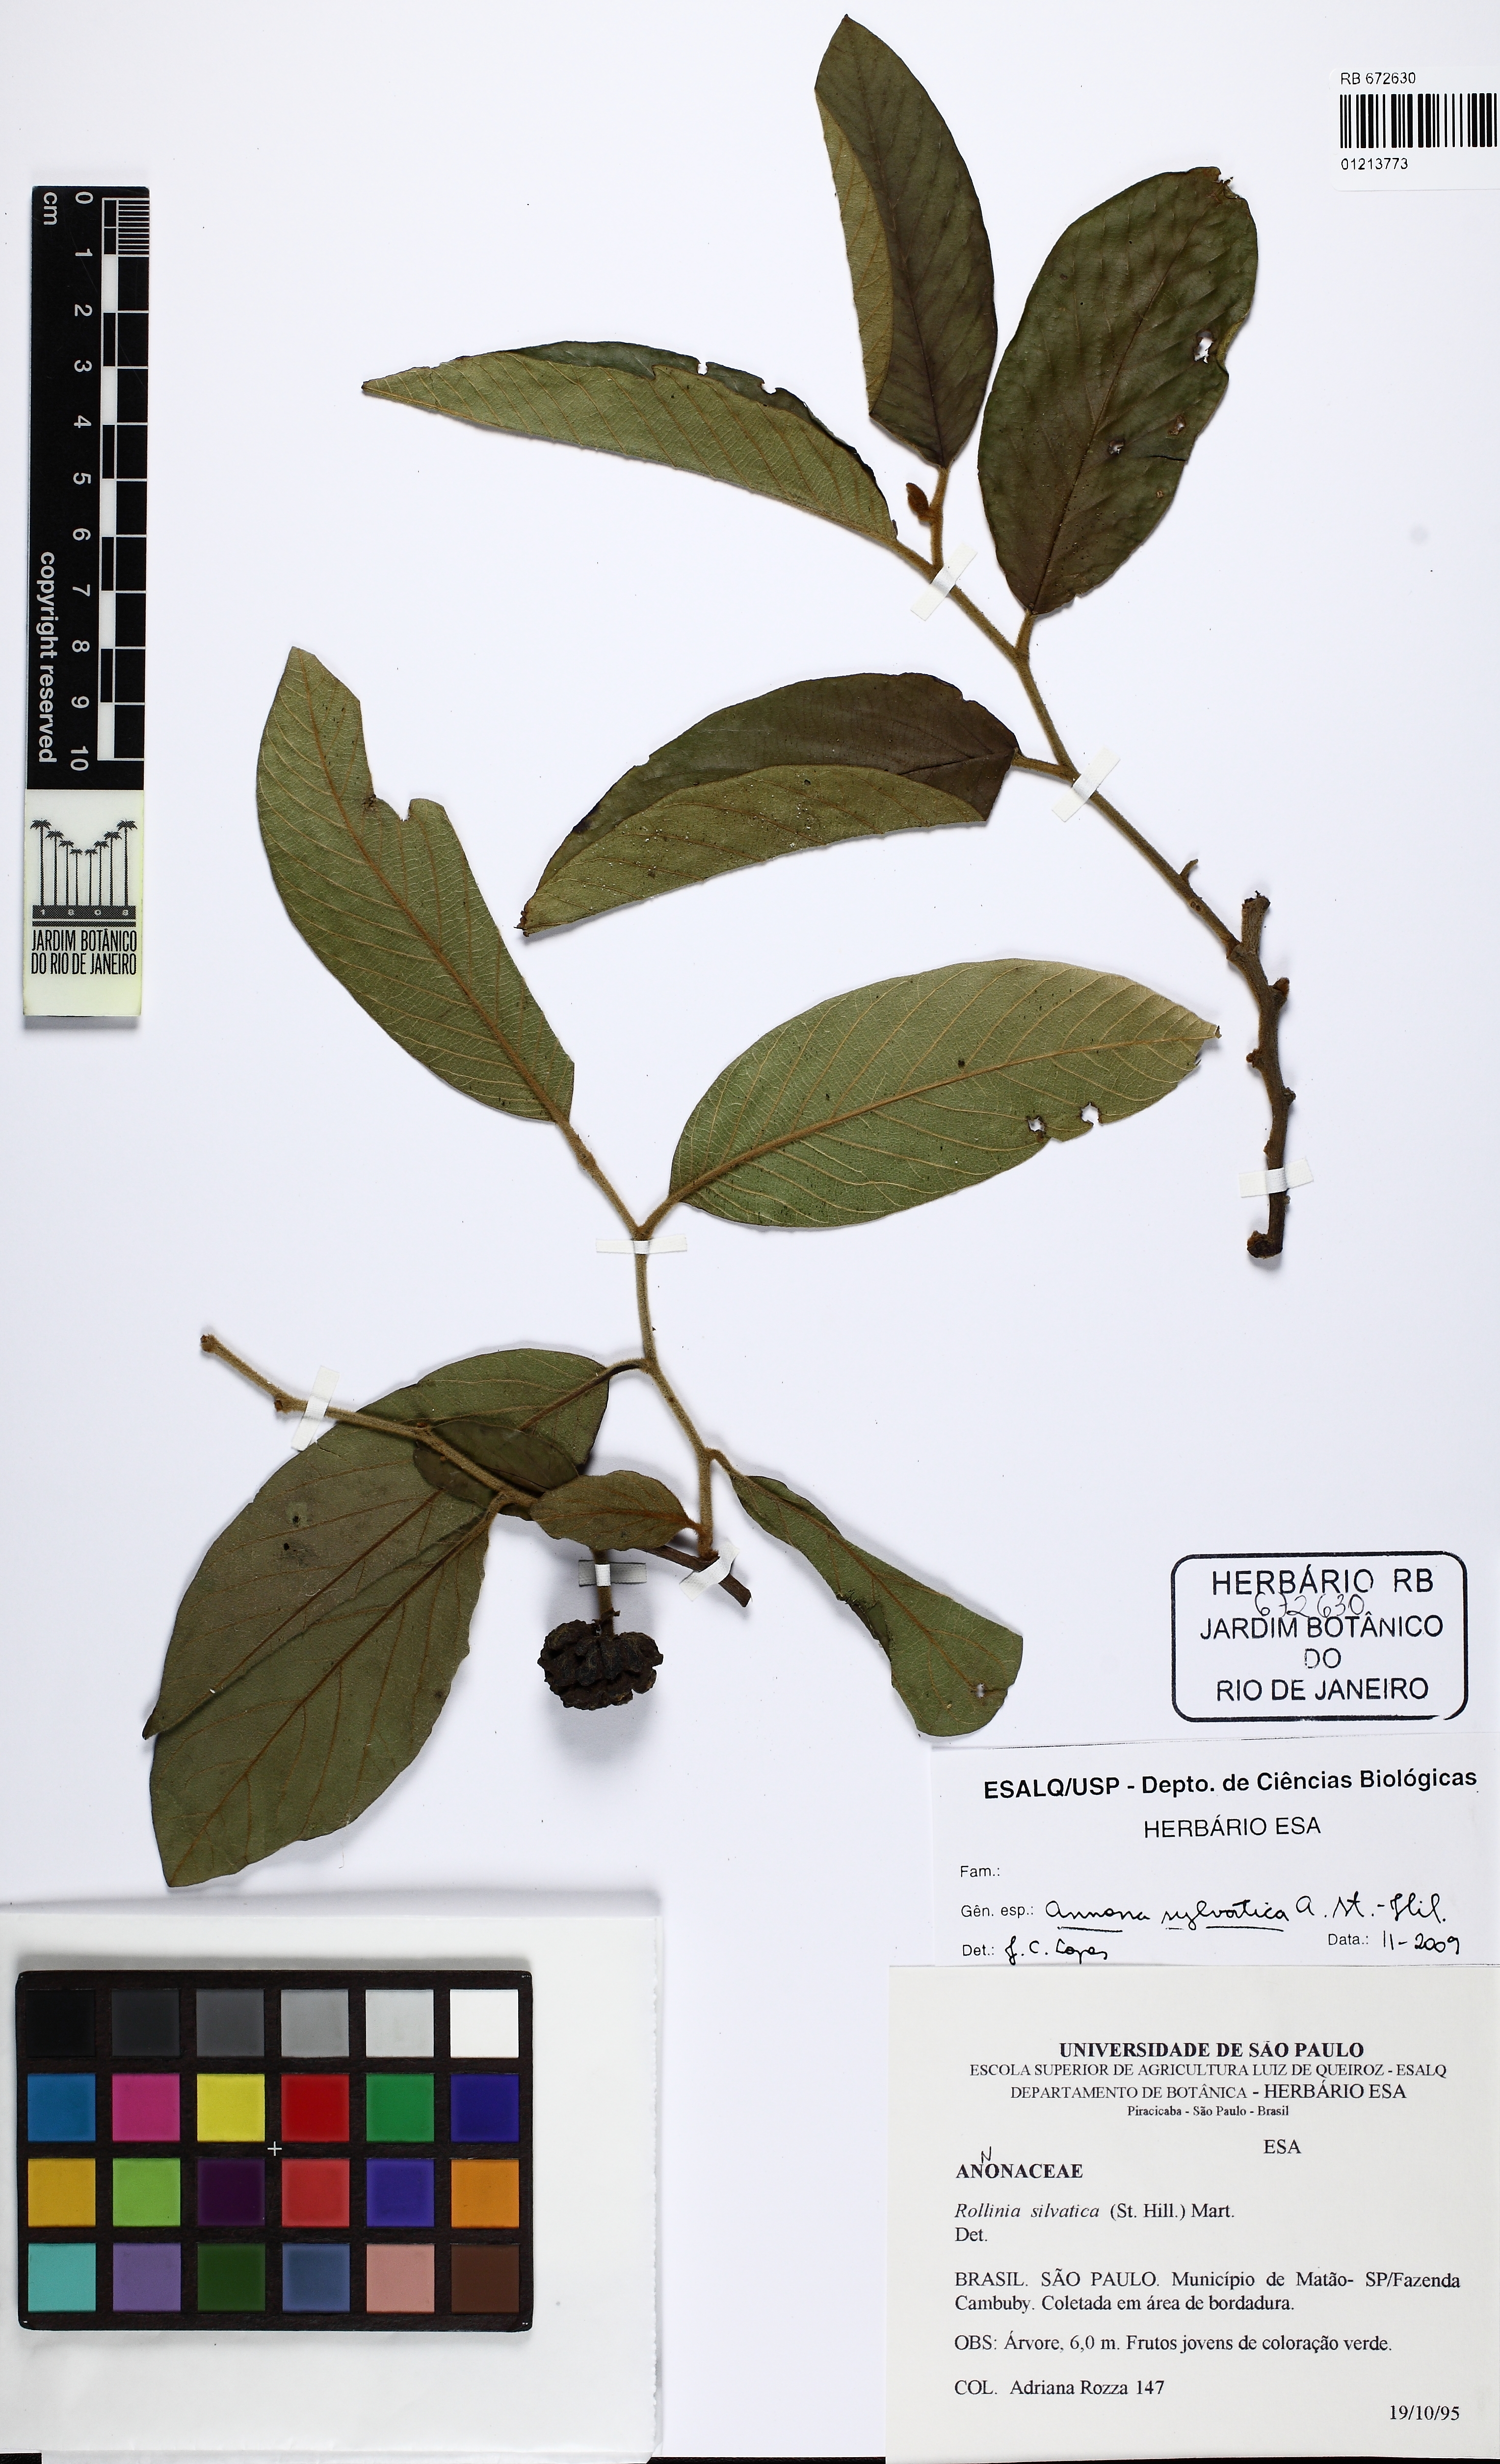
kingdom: Plantae
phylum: Tracheophyta
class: Magnoliopsida
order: Magnoliales
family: Annonaceae
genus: Annona
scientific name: Annona sylvatica
